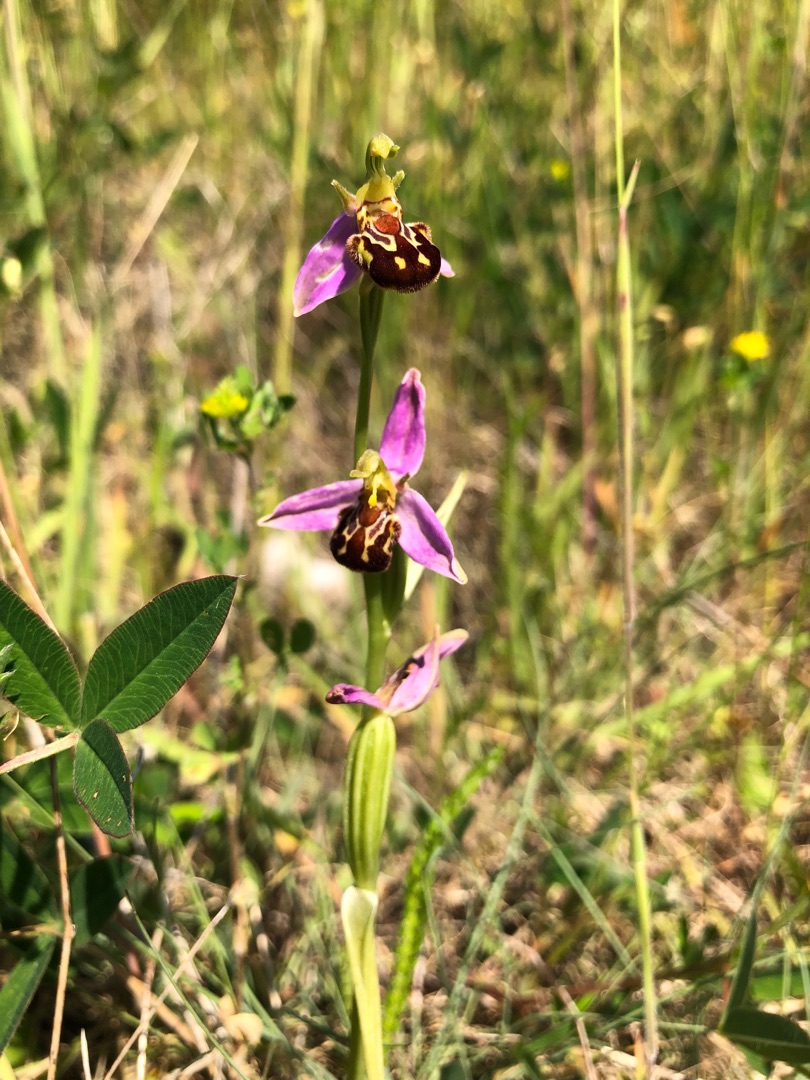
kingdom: Plantae
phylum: Tracheophyta
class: Liliopsida
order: Asparagales
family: Orchidaceae
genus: Ophrys
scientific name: Ophrys apifera
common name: Biblomst
